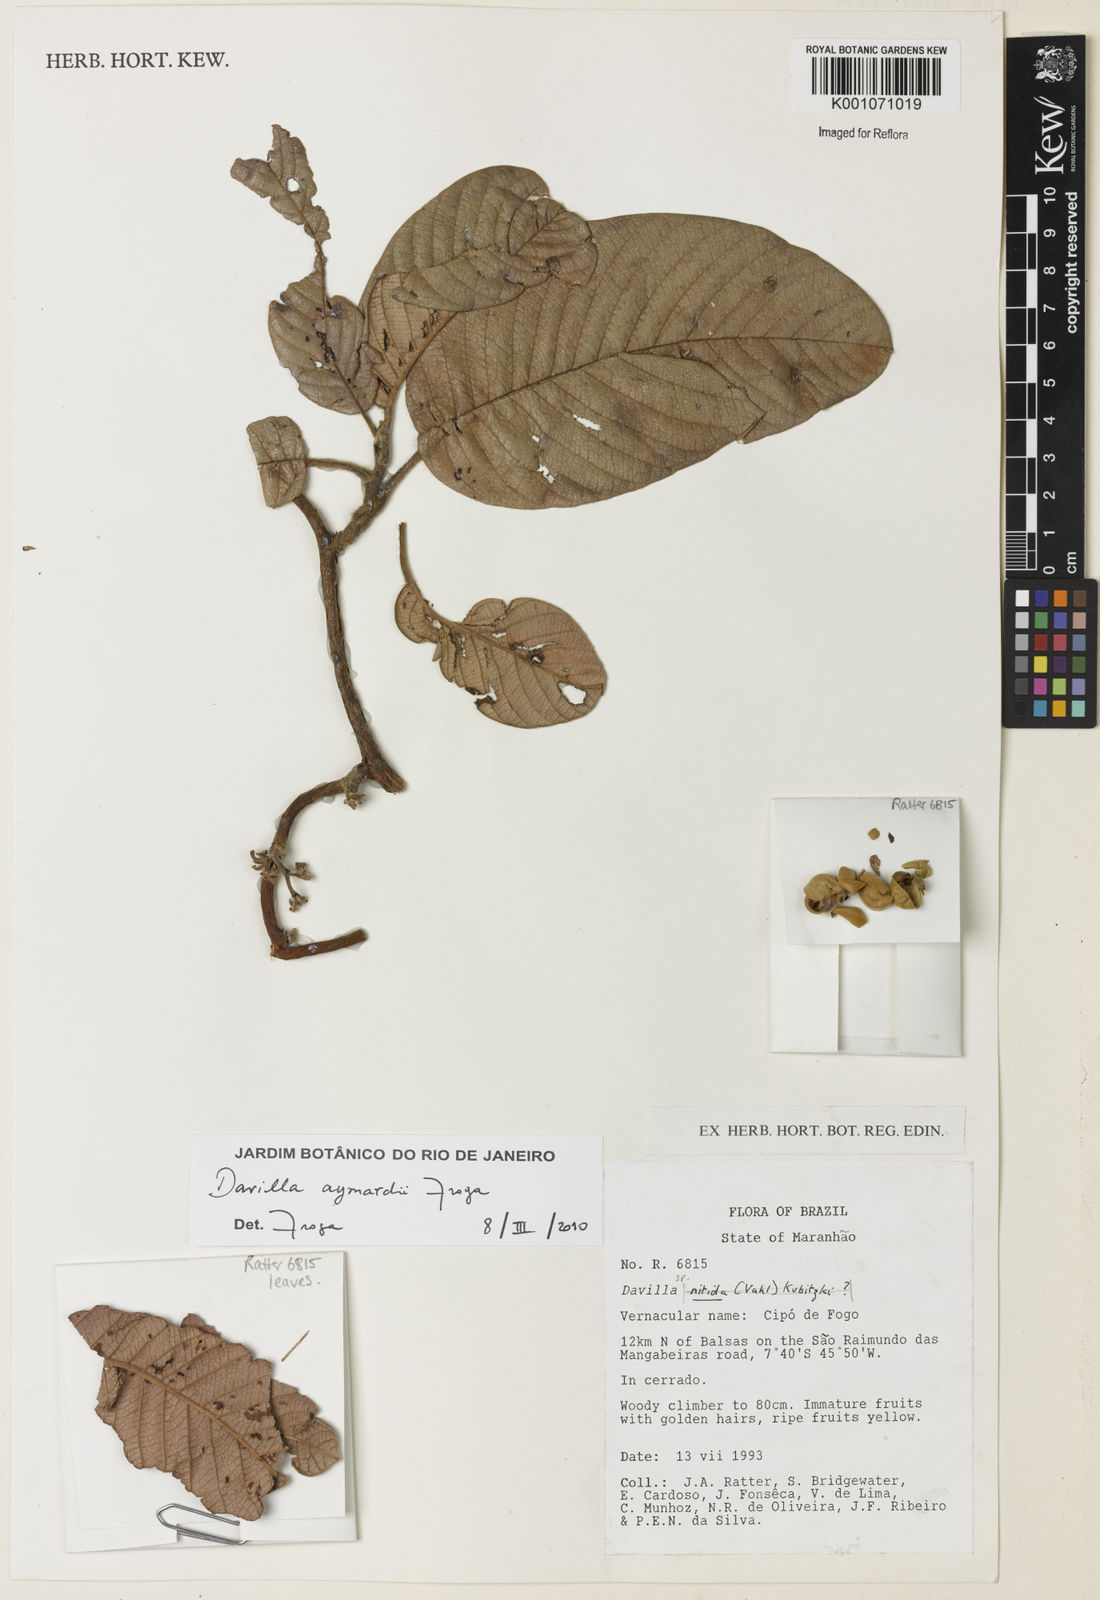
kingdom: Plantae
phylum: Tracheophyta
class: Magnoliopsida
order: Dilleniales
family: Dilleniaceae
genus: Davilla
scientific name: Davilla aymardii
